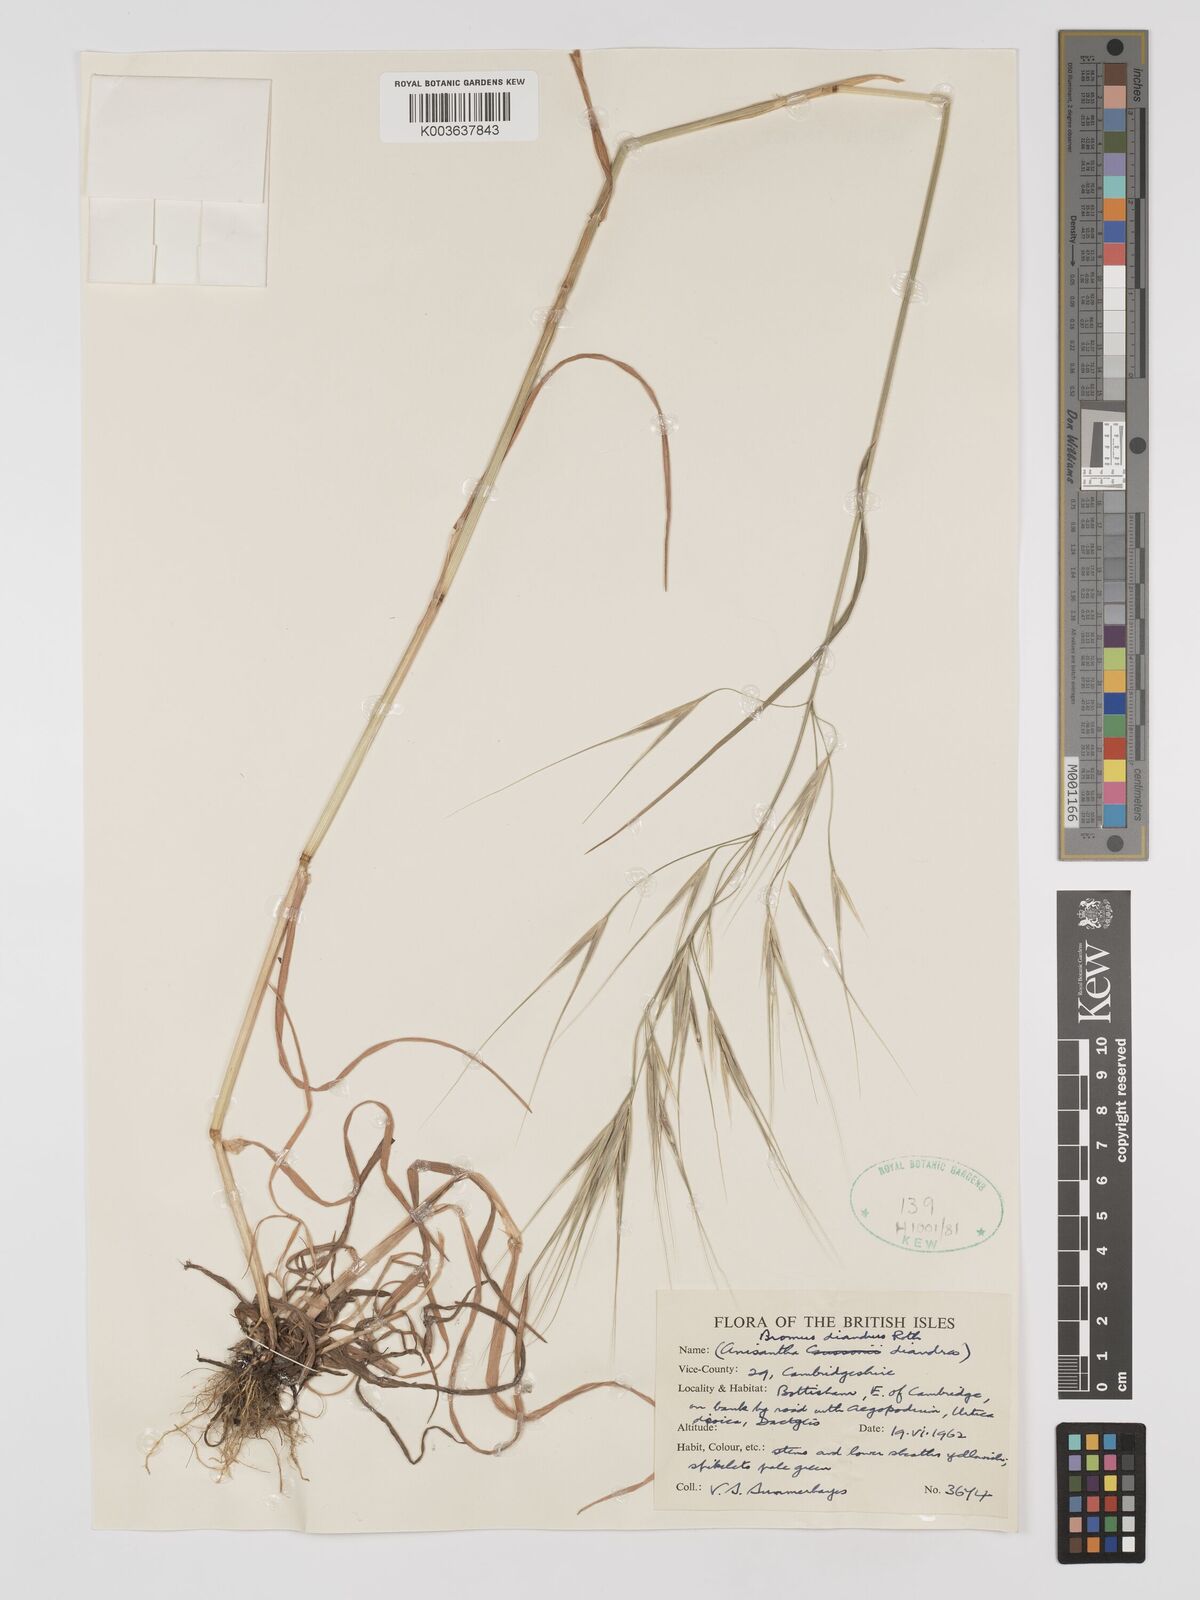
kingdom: Plantae
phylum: Tracheophyta
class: Liliopsida
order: Poales
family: Poaceae
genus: Bromus
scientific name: Bromus
